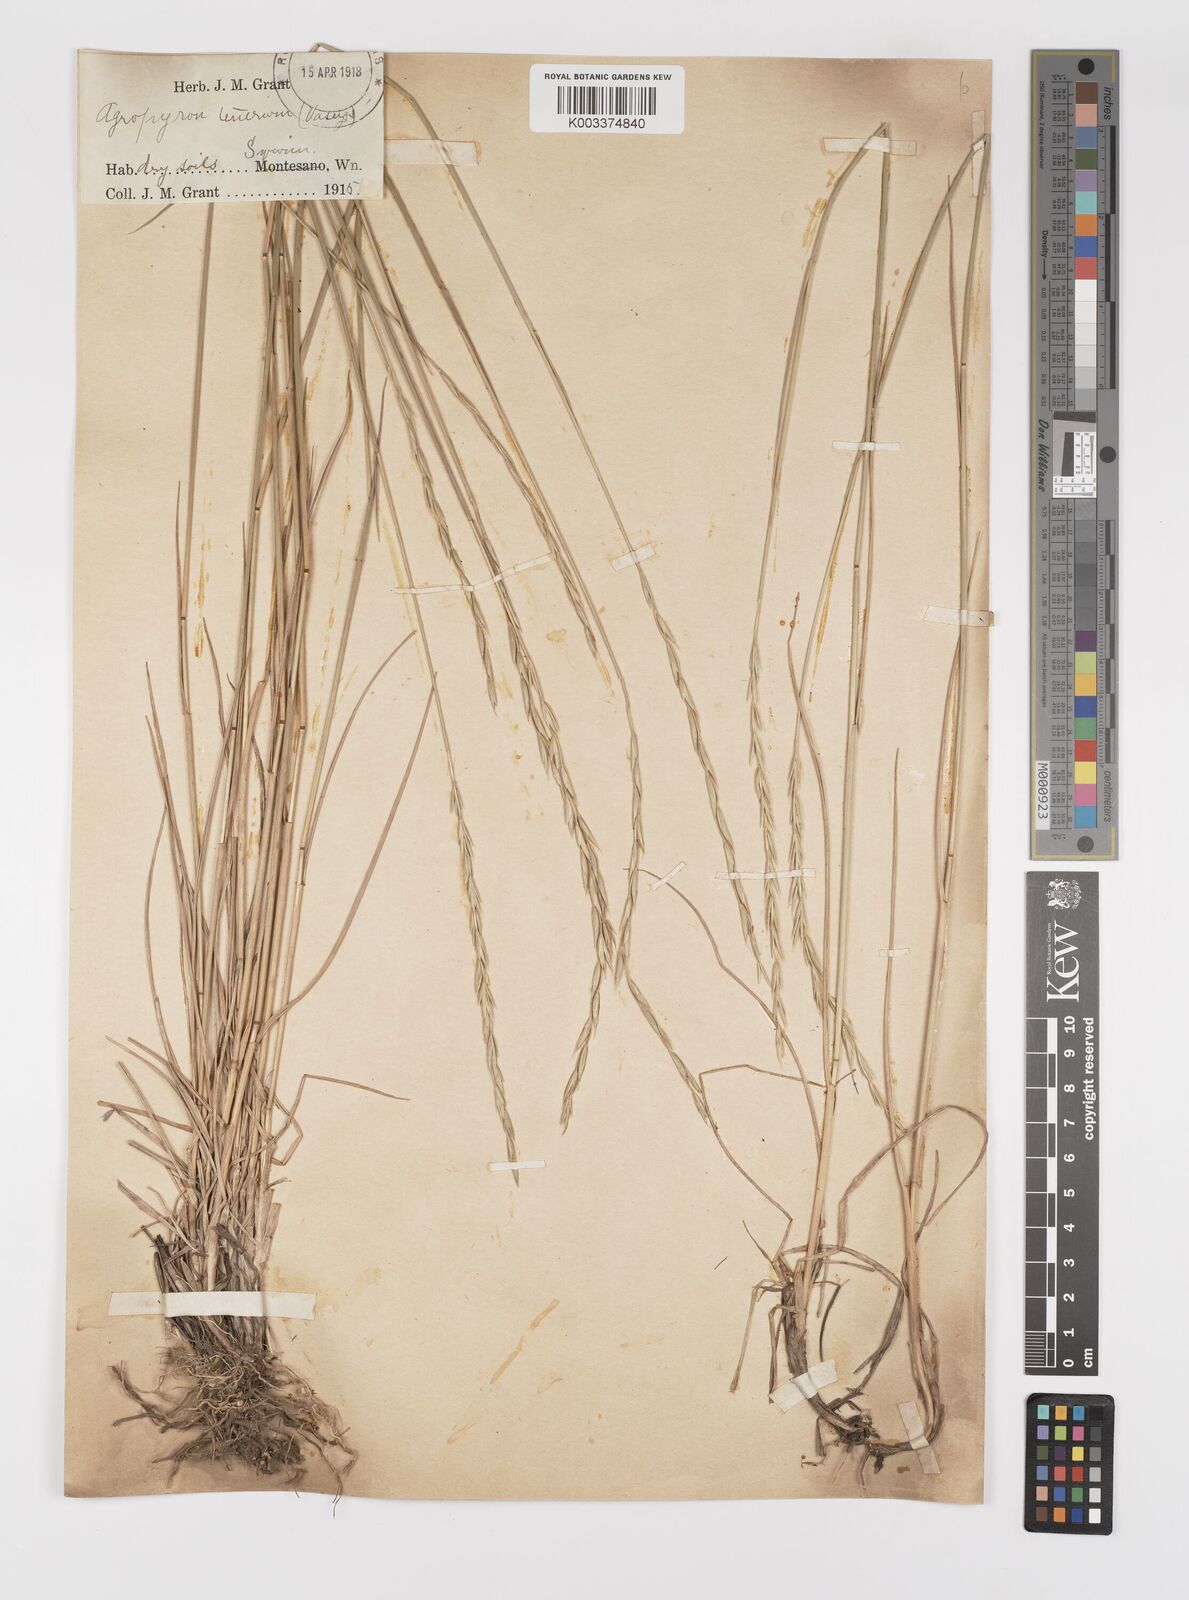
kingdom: Plantae
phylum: Tracheophyta
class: Liliopsida
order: Poales
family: Poaceae
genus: Elymus
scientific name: Elymus violaceus
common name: Arctic wheatgrass
